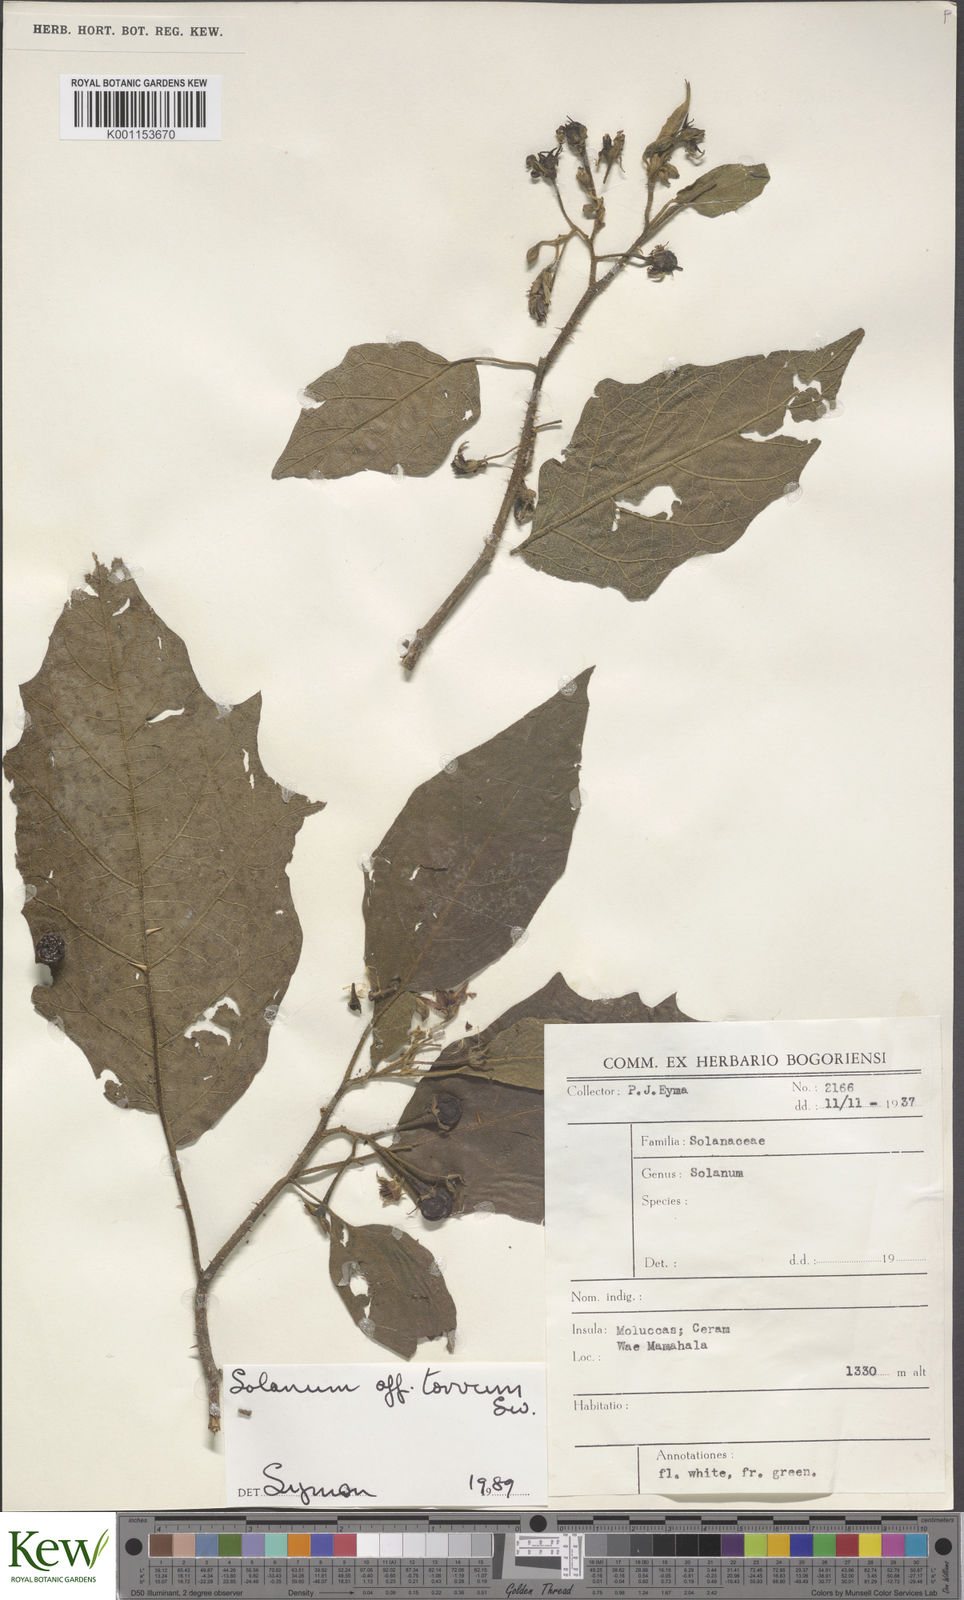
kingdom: Plantae
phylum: Tracheophyta
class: Magnoliopsida
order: Solanales
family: Solanaceae
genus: Solanum
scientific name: Solanum torvum
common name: Turkey berry
